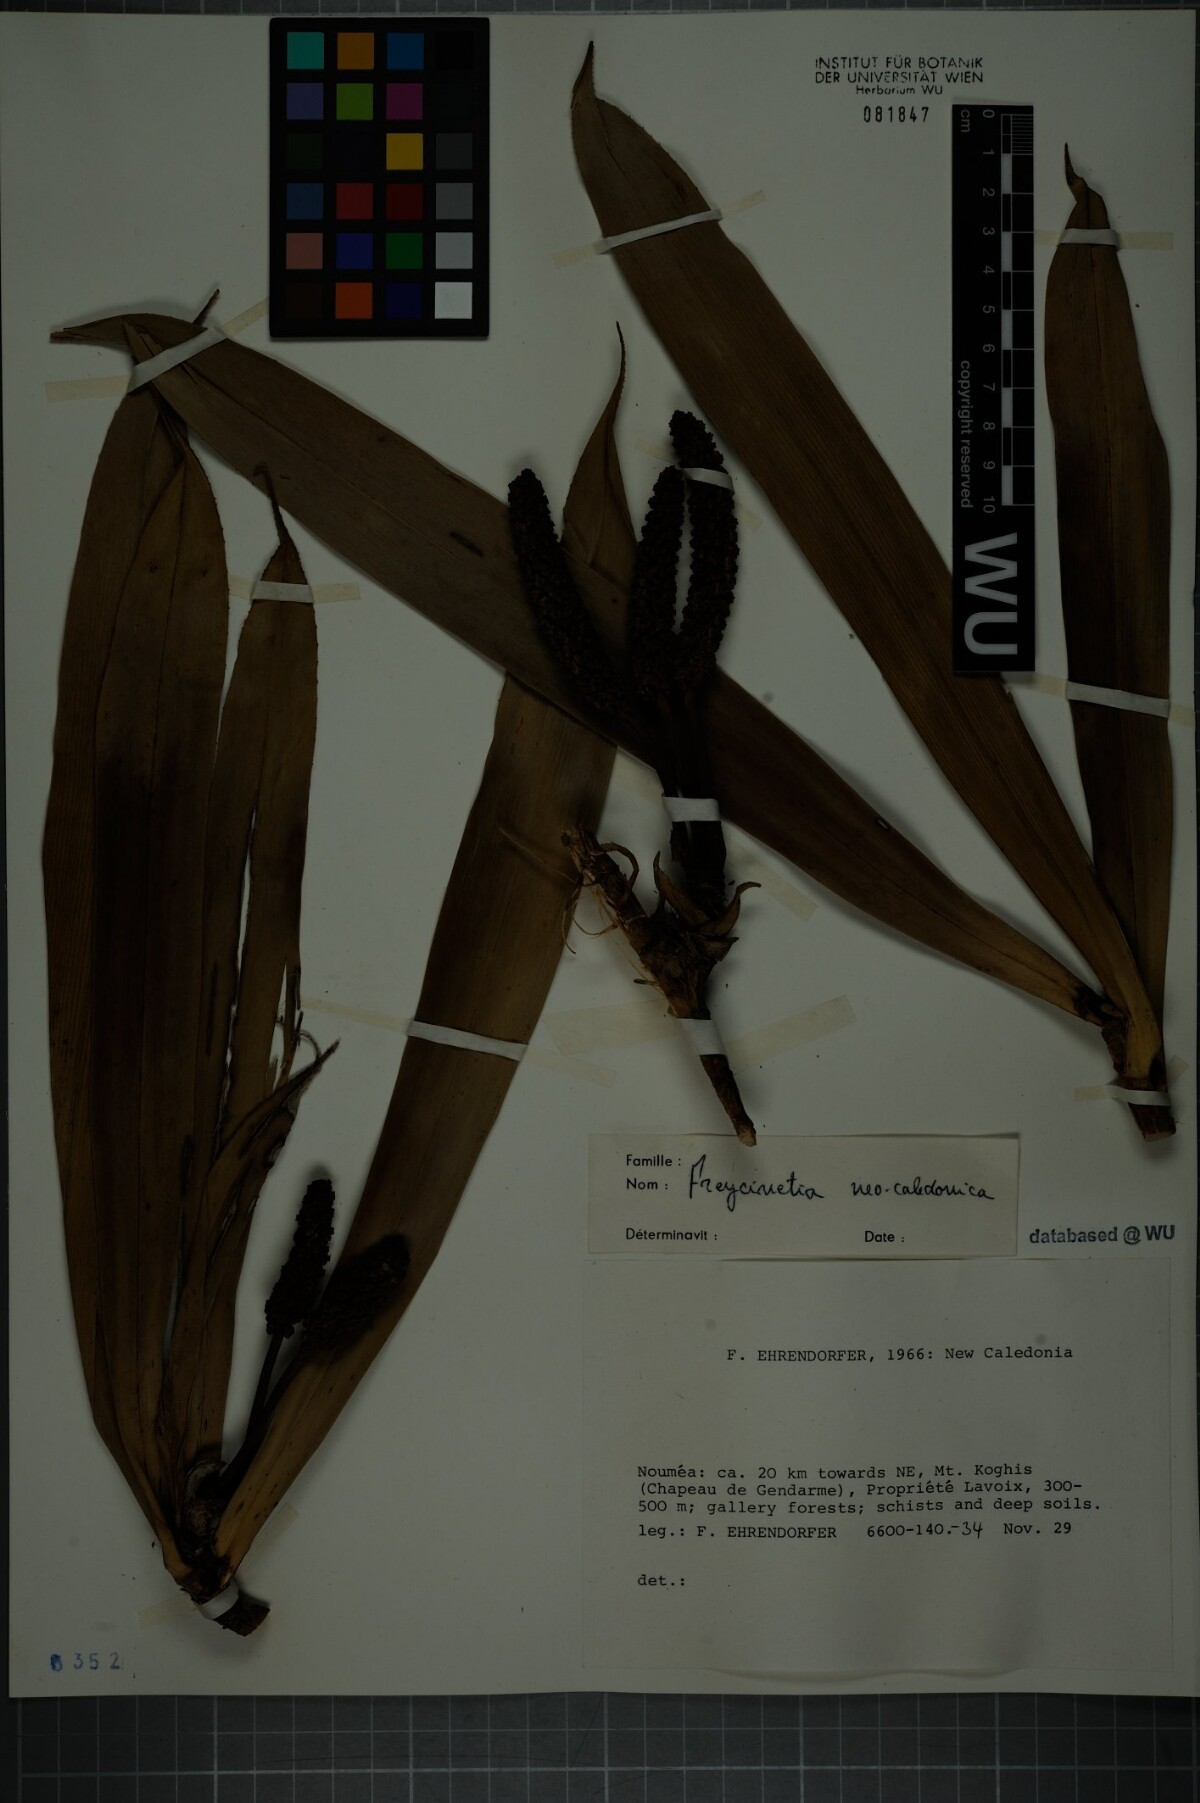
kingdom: Plantae
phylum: Tracheophyta
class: Liliopsida
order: Pandanales
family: Pandanaceae
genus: Freycinetia
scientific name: Freycinetia novocaledonica
